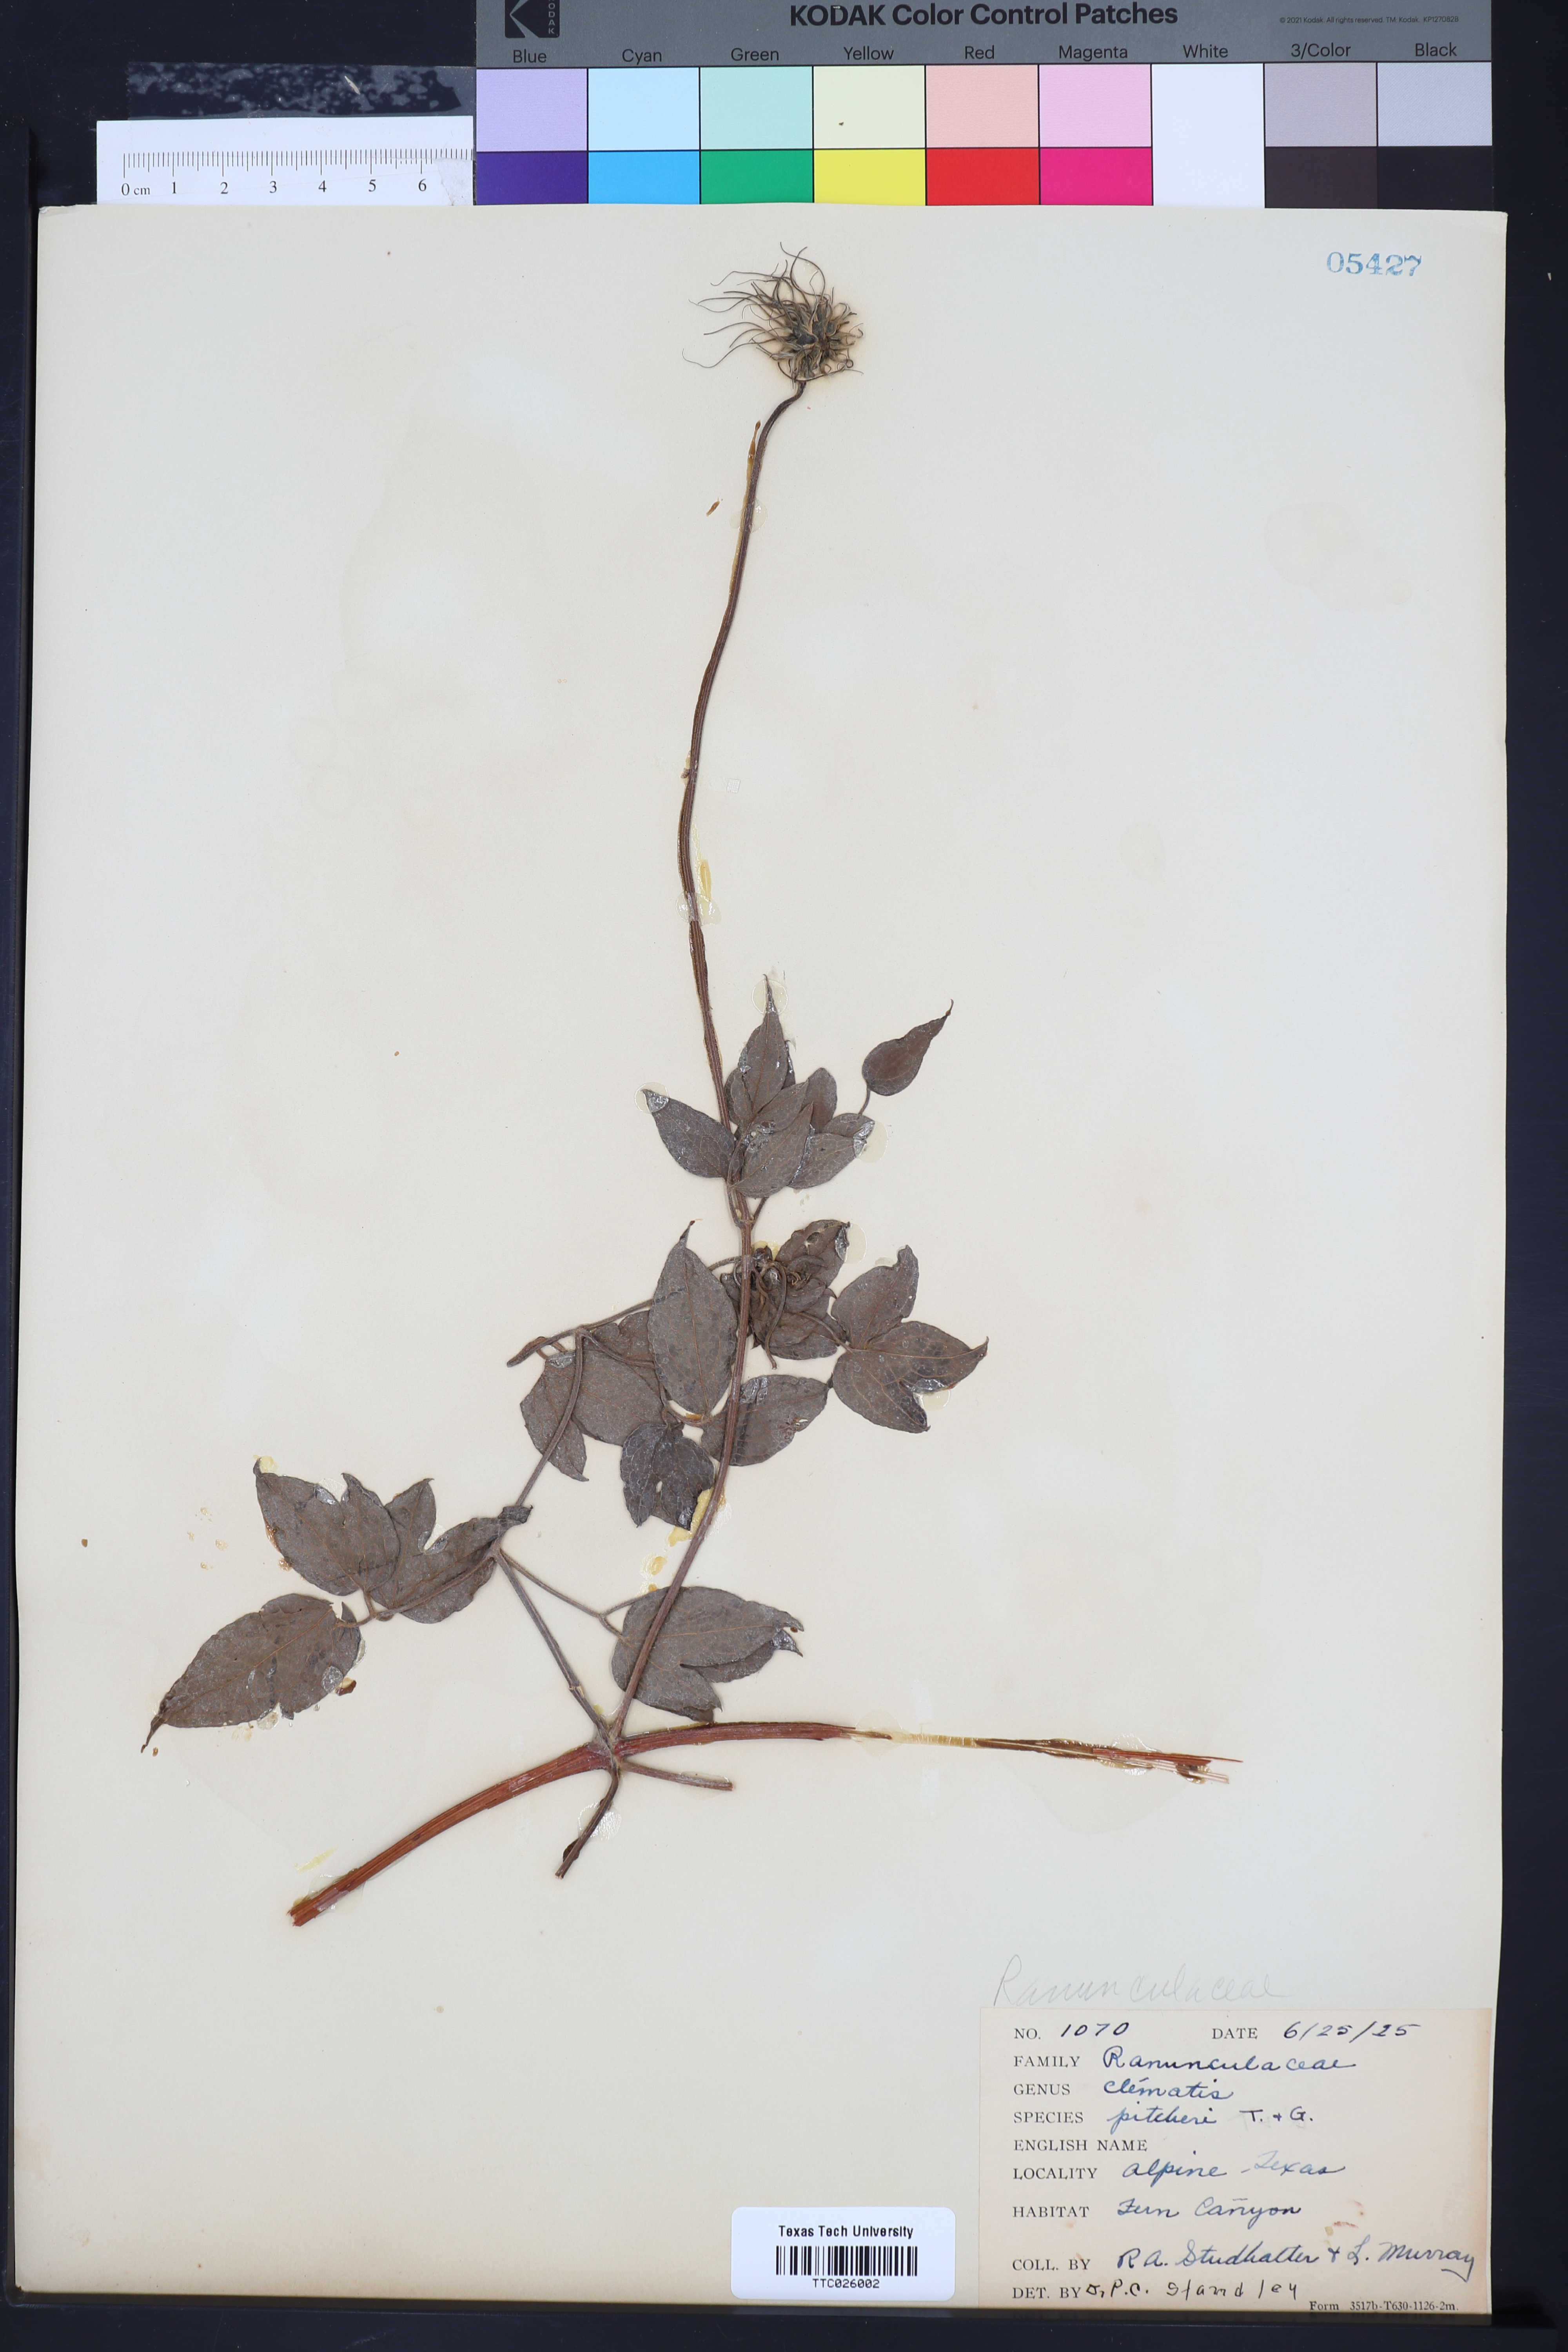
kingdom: Plantae
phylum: Tracheophyta
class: Magnoliopsida
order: Ranunculales
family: Ranunculaceae
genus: Clematis
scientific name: Clematis pitcheri
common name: Bellflower clematis
